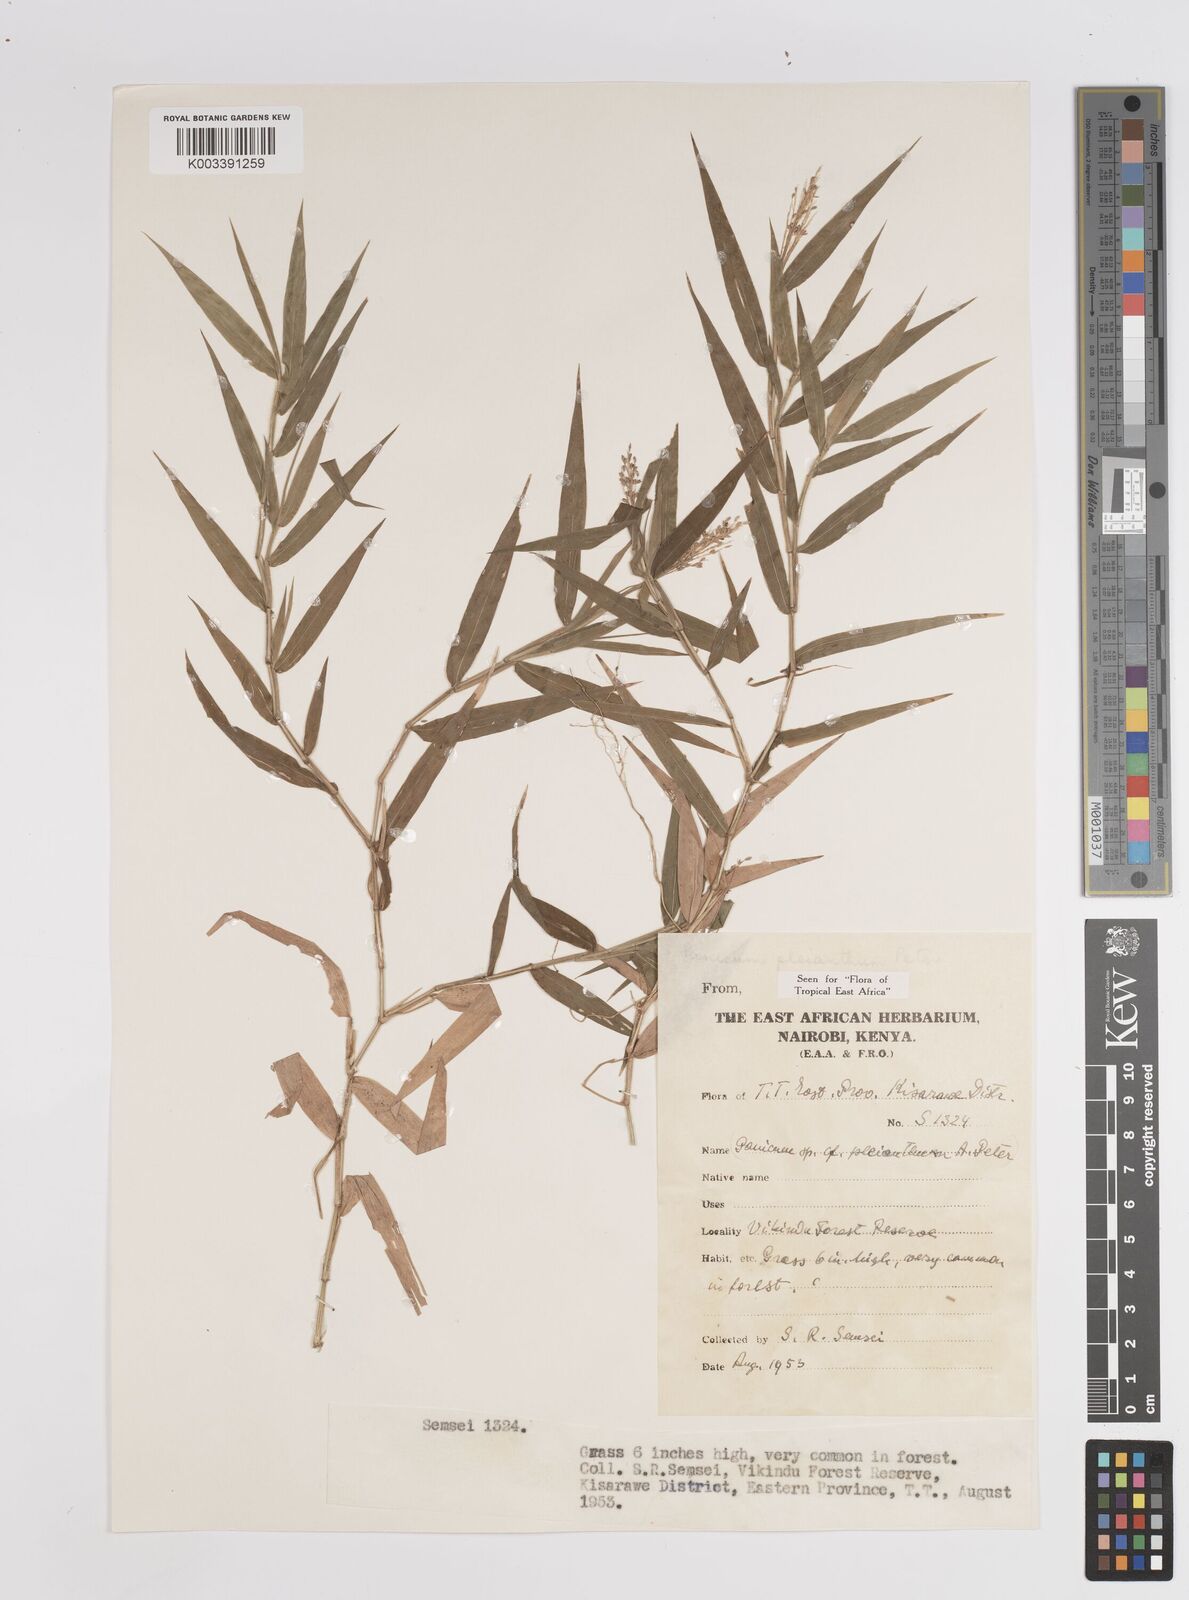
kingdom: Plantae
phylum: Tracheophyta
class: Liliopsida
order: Poales
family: Poaceae
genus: Panicum
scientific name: Panicum pleianthum
